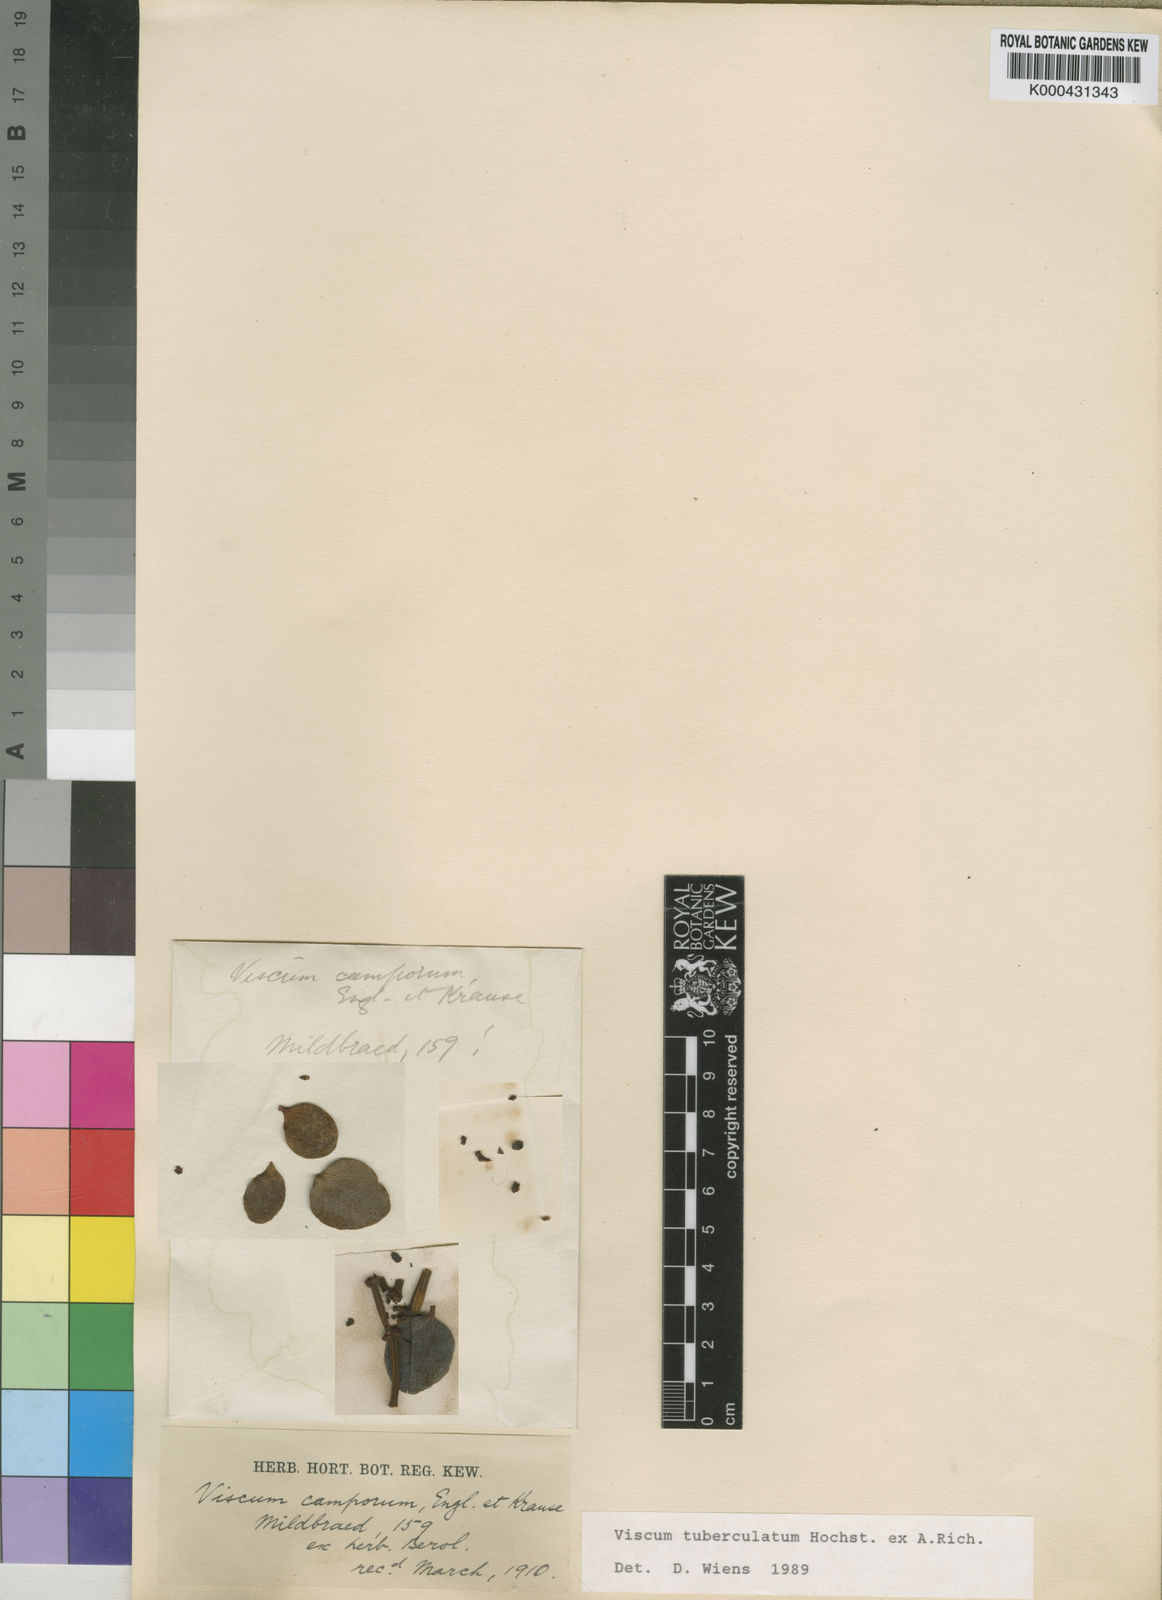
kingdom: Plantae
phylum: Tracheophyta
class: Magnoliopsida
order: Santalales
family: Viscaceae
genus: Viscum
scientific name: Viscum tuberculatum
